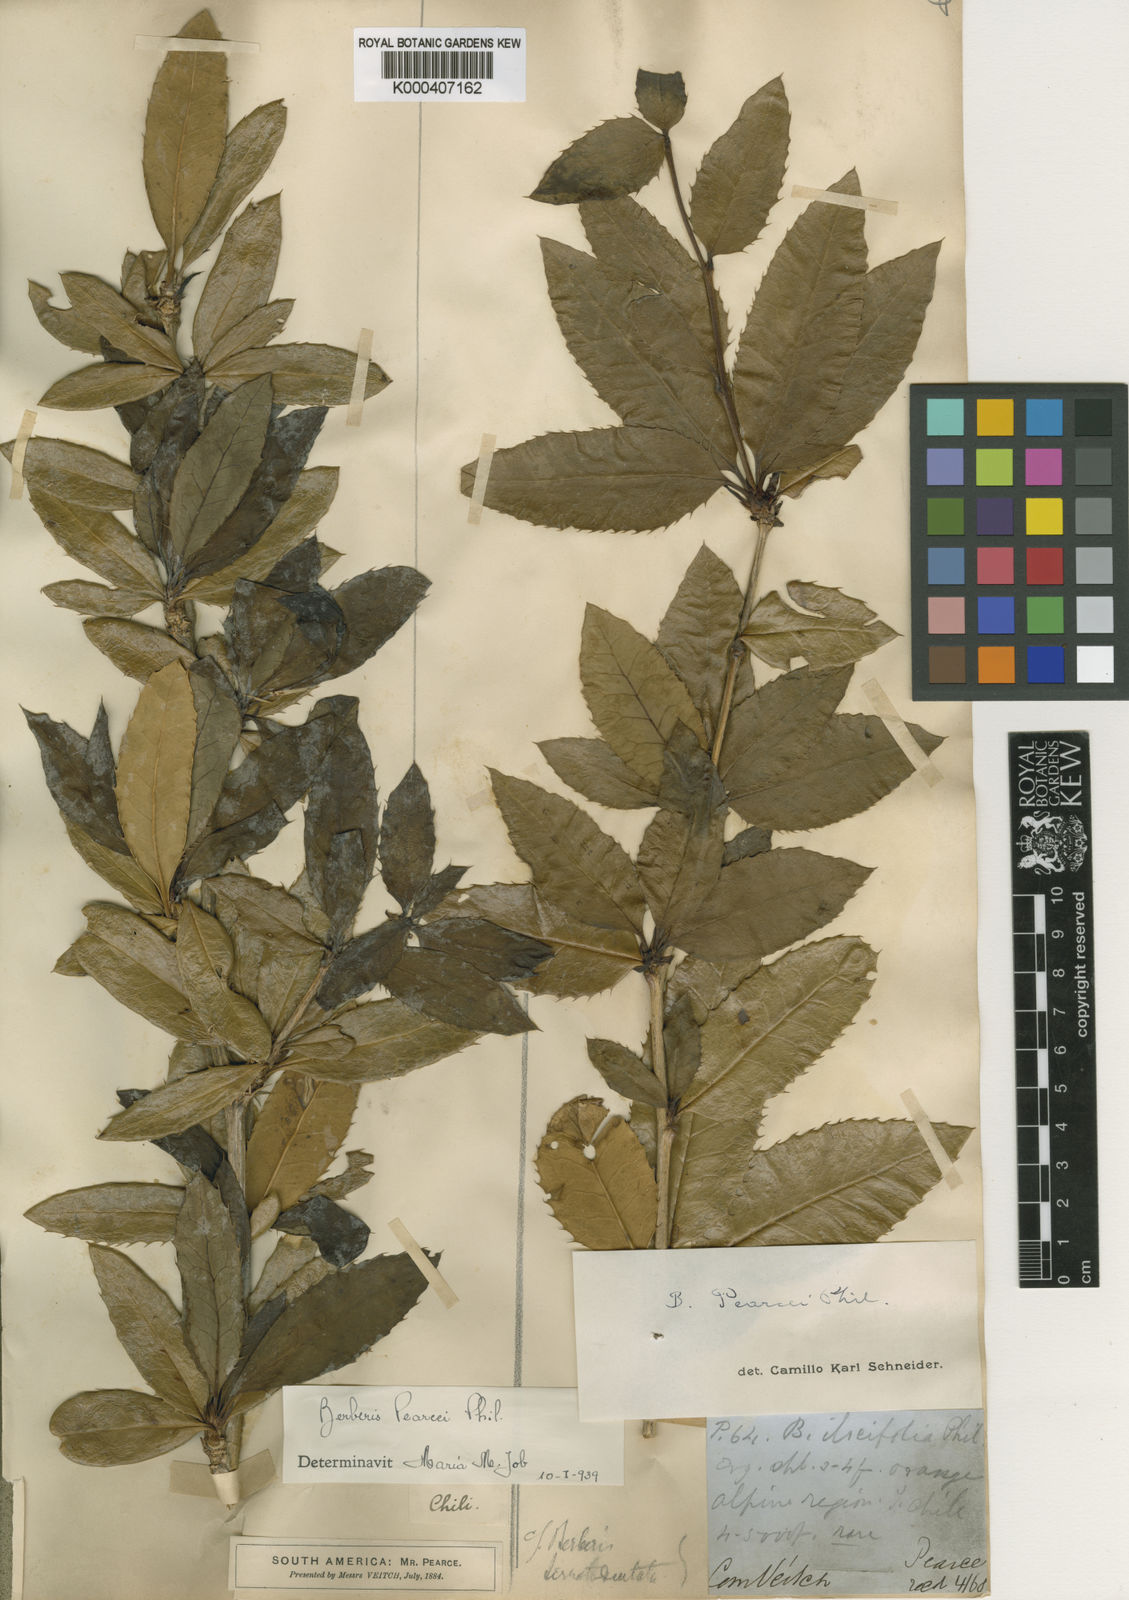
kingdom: Plantae
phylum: Tracheophyta
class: Magnoliopsida
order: Ranunculales
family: Berberidaceae
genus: Berberis
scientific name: Berberis serratodentata
